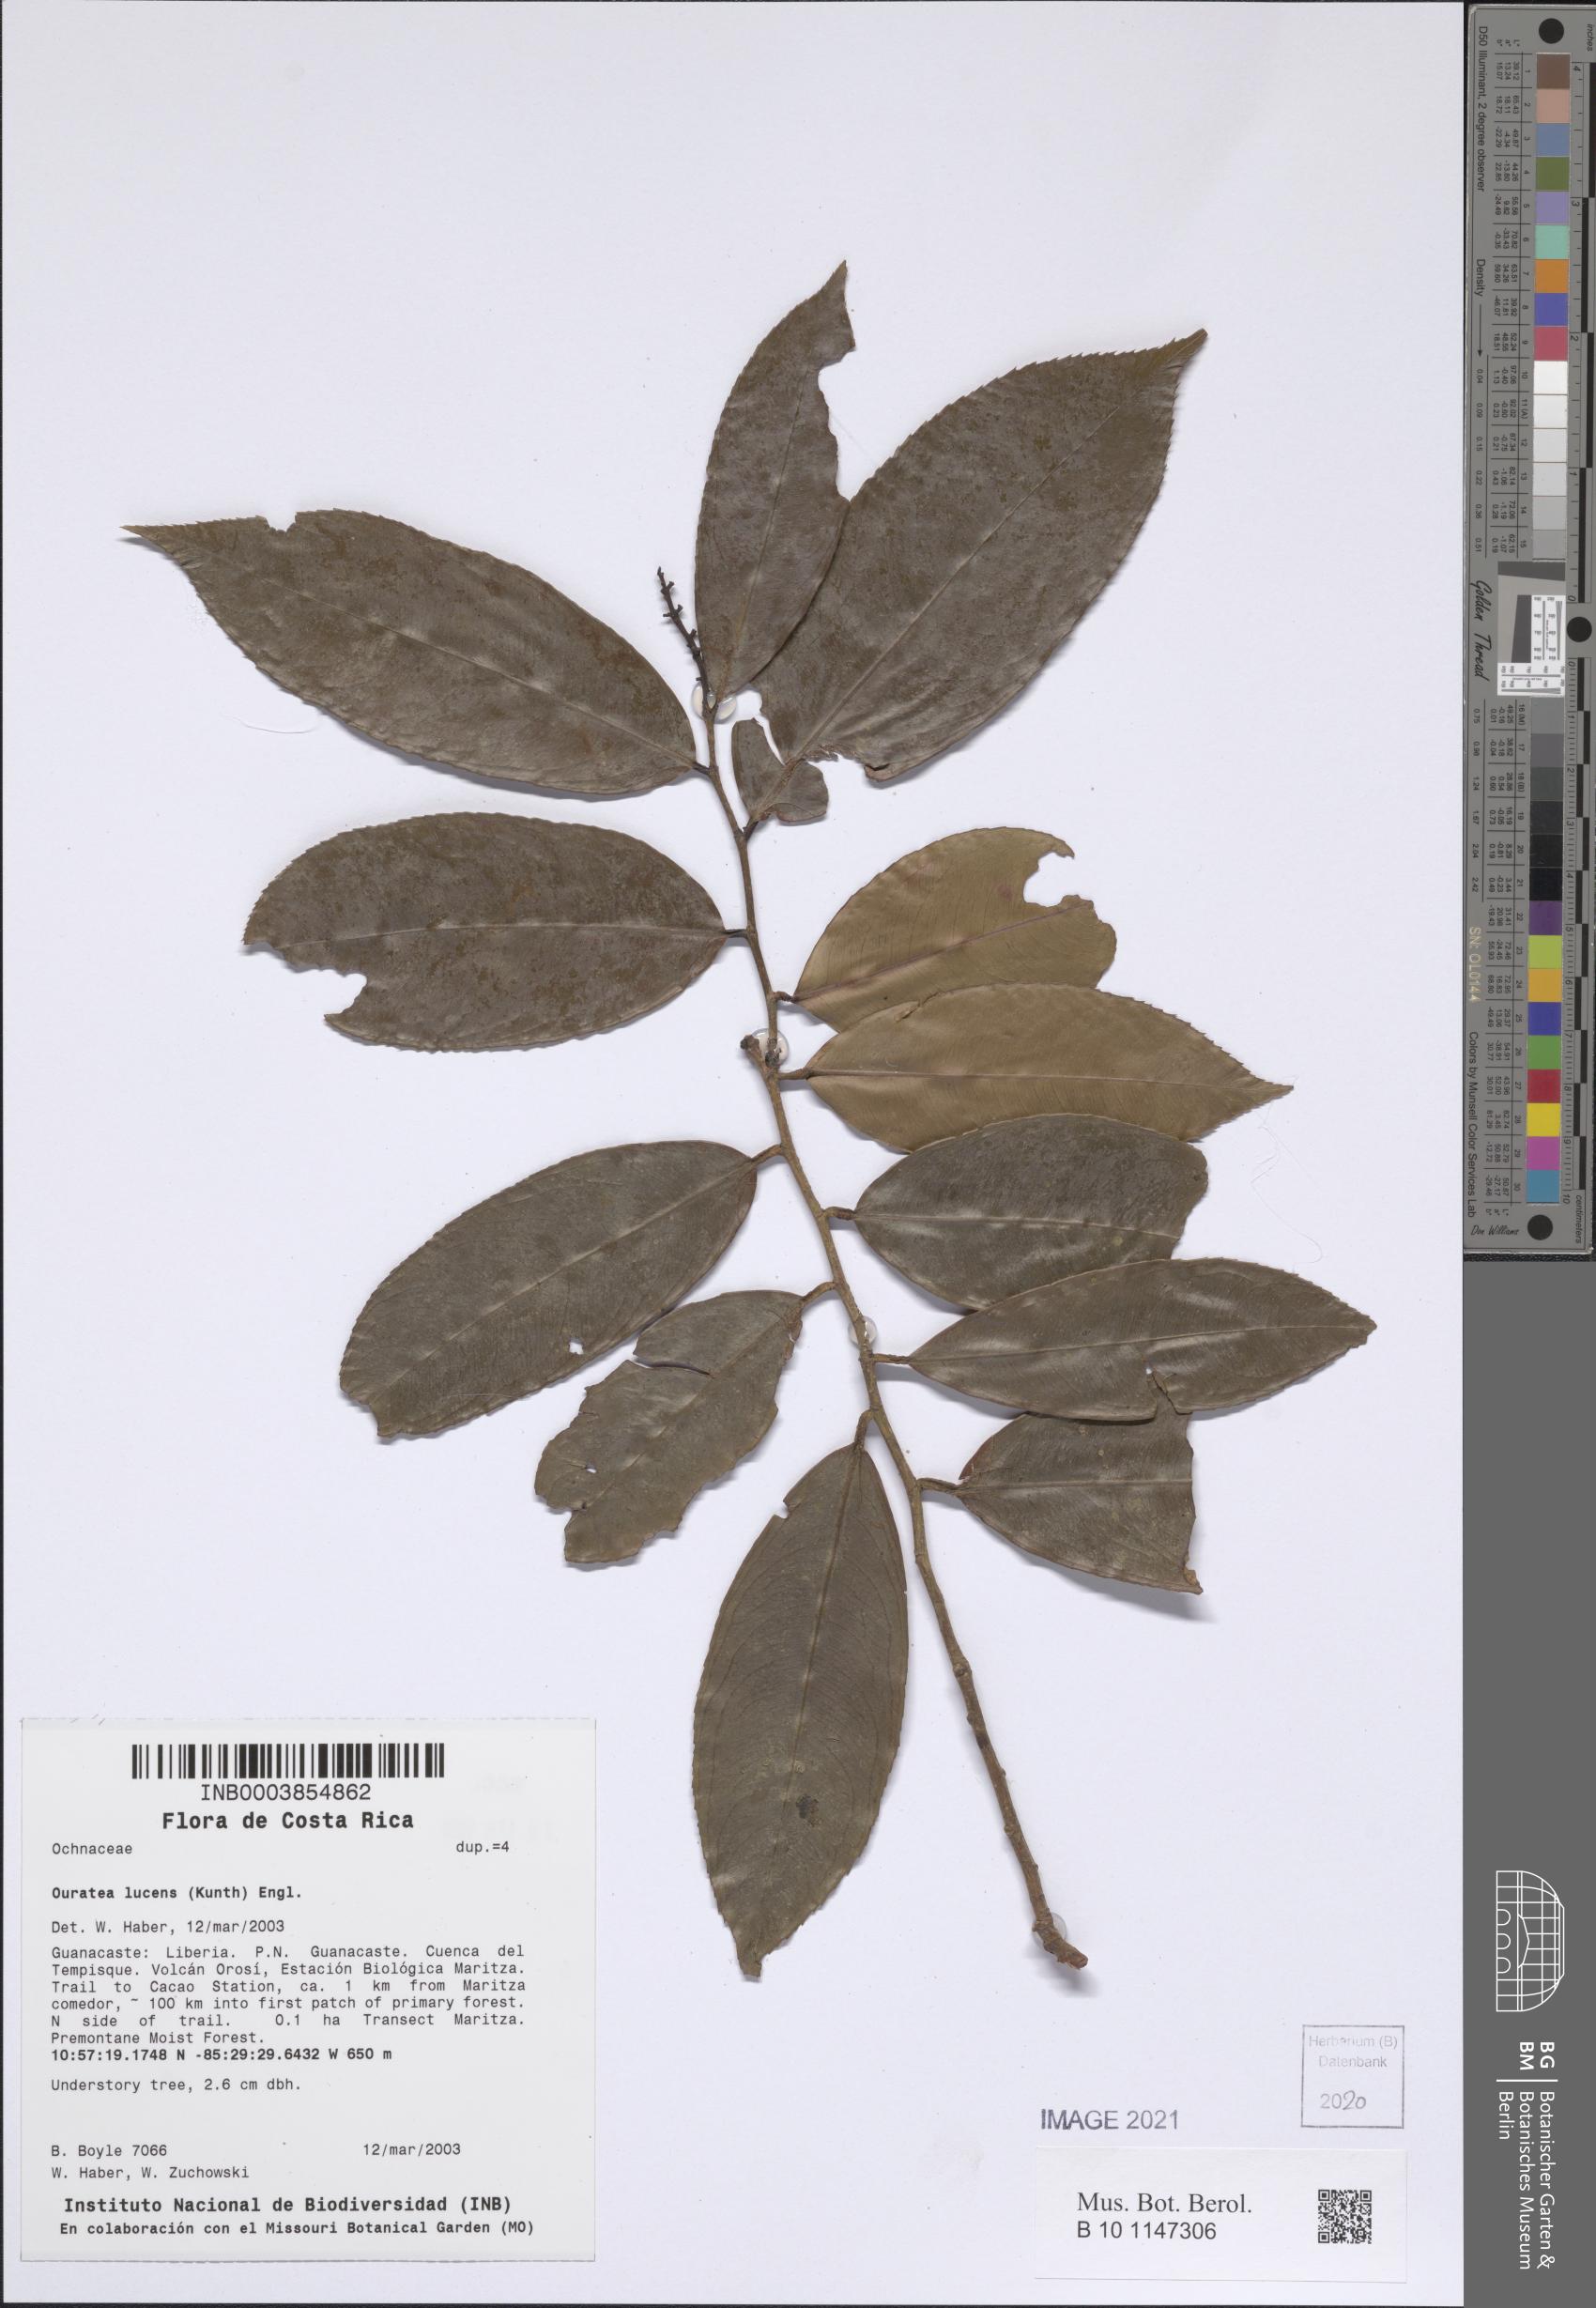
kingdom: Plantae
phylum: Tracheophyta
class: Magnoliopsida
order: Malpighiales
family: Ochnaceae
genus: Ouratea
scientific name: Ouratea lucens
